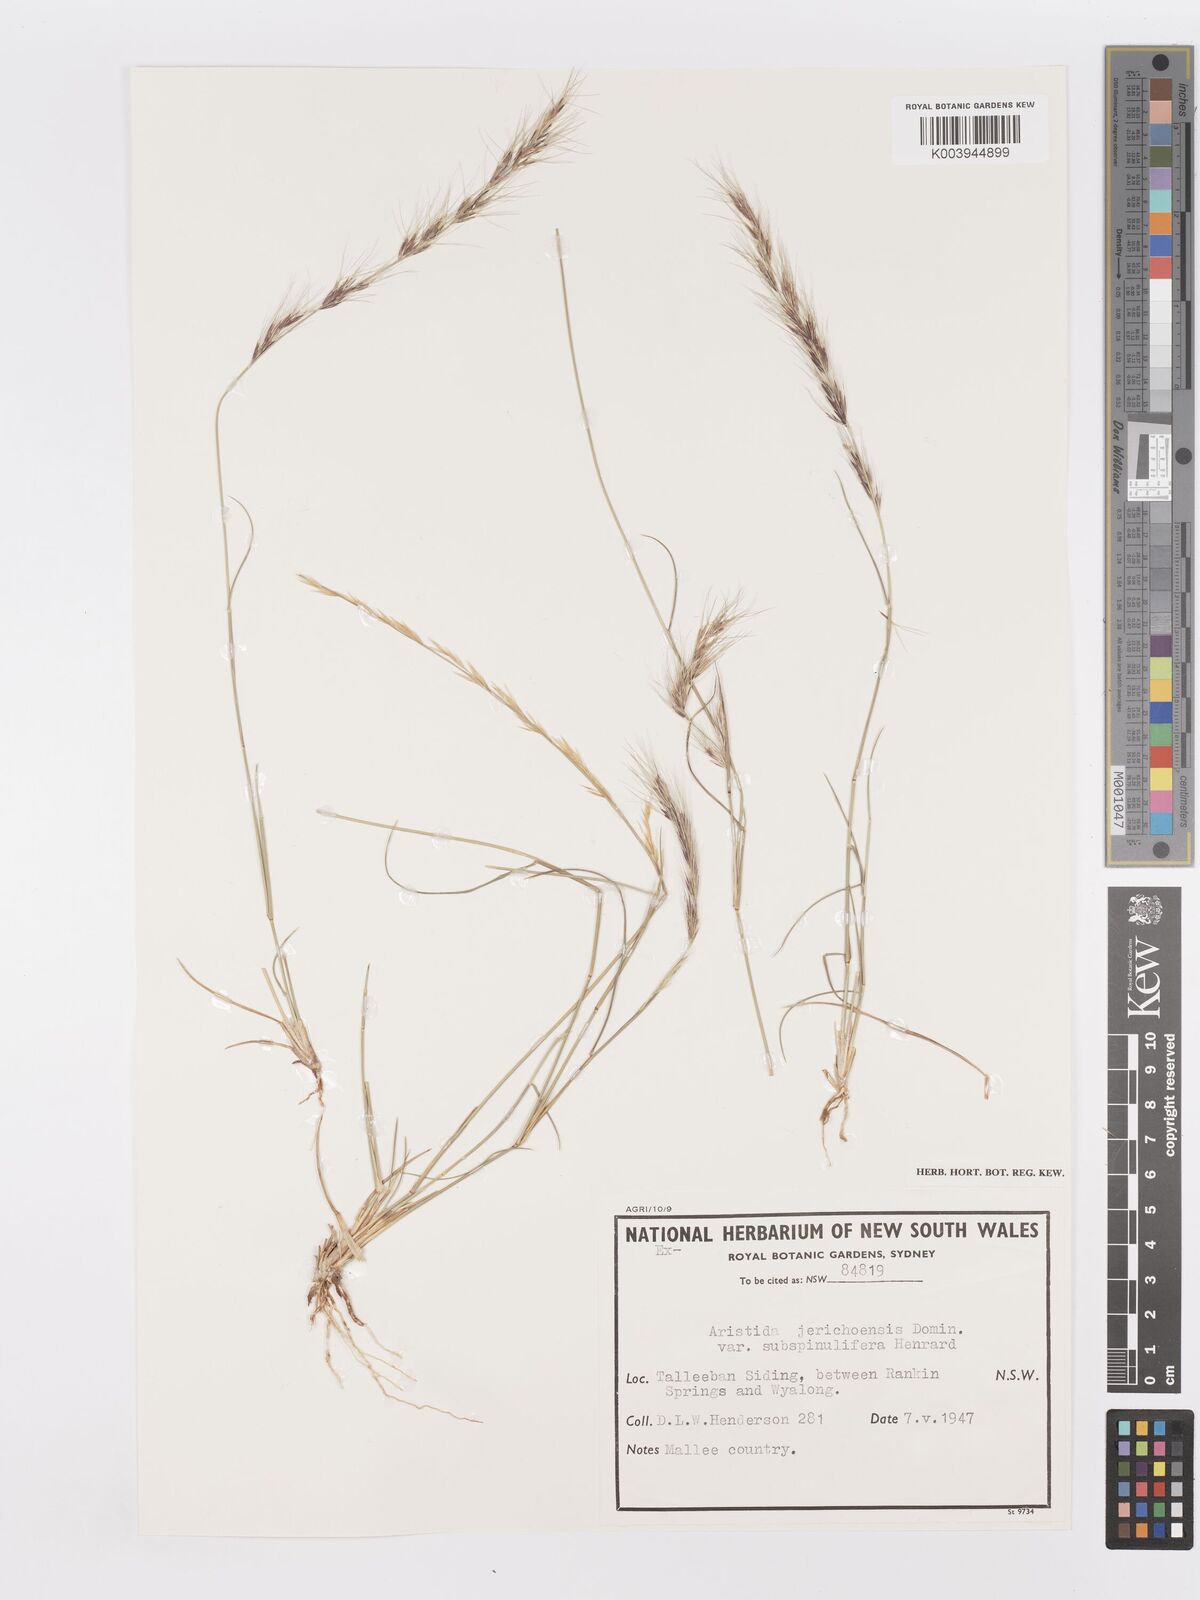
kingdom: Plantae
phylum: Tracheophyta
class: Liliopsida
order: Poales
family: Poaceae
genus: Aristida
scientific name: Aristida jerichoensis
